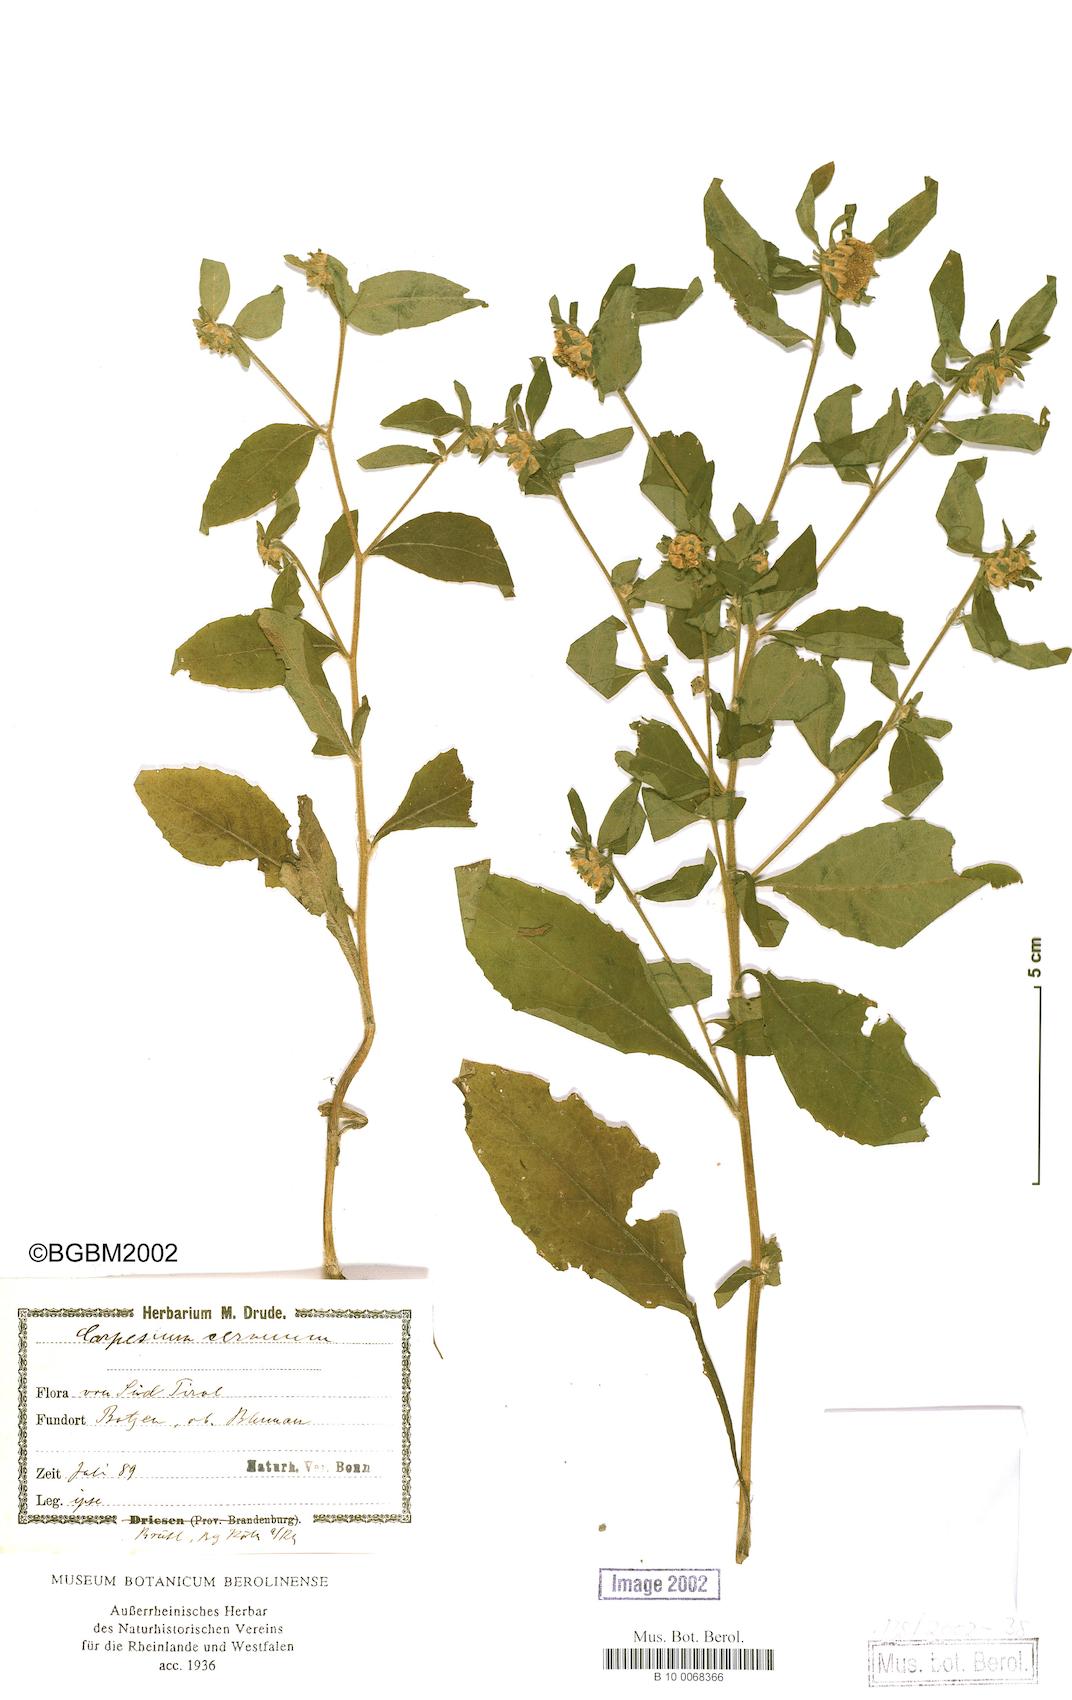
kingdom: Plantae
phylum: Tracheophyta
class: Magnoliopsida
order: Asterales
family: Asteraceae
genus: Carpesium
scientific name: Carpesium cernuum
